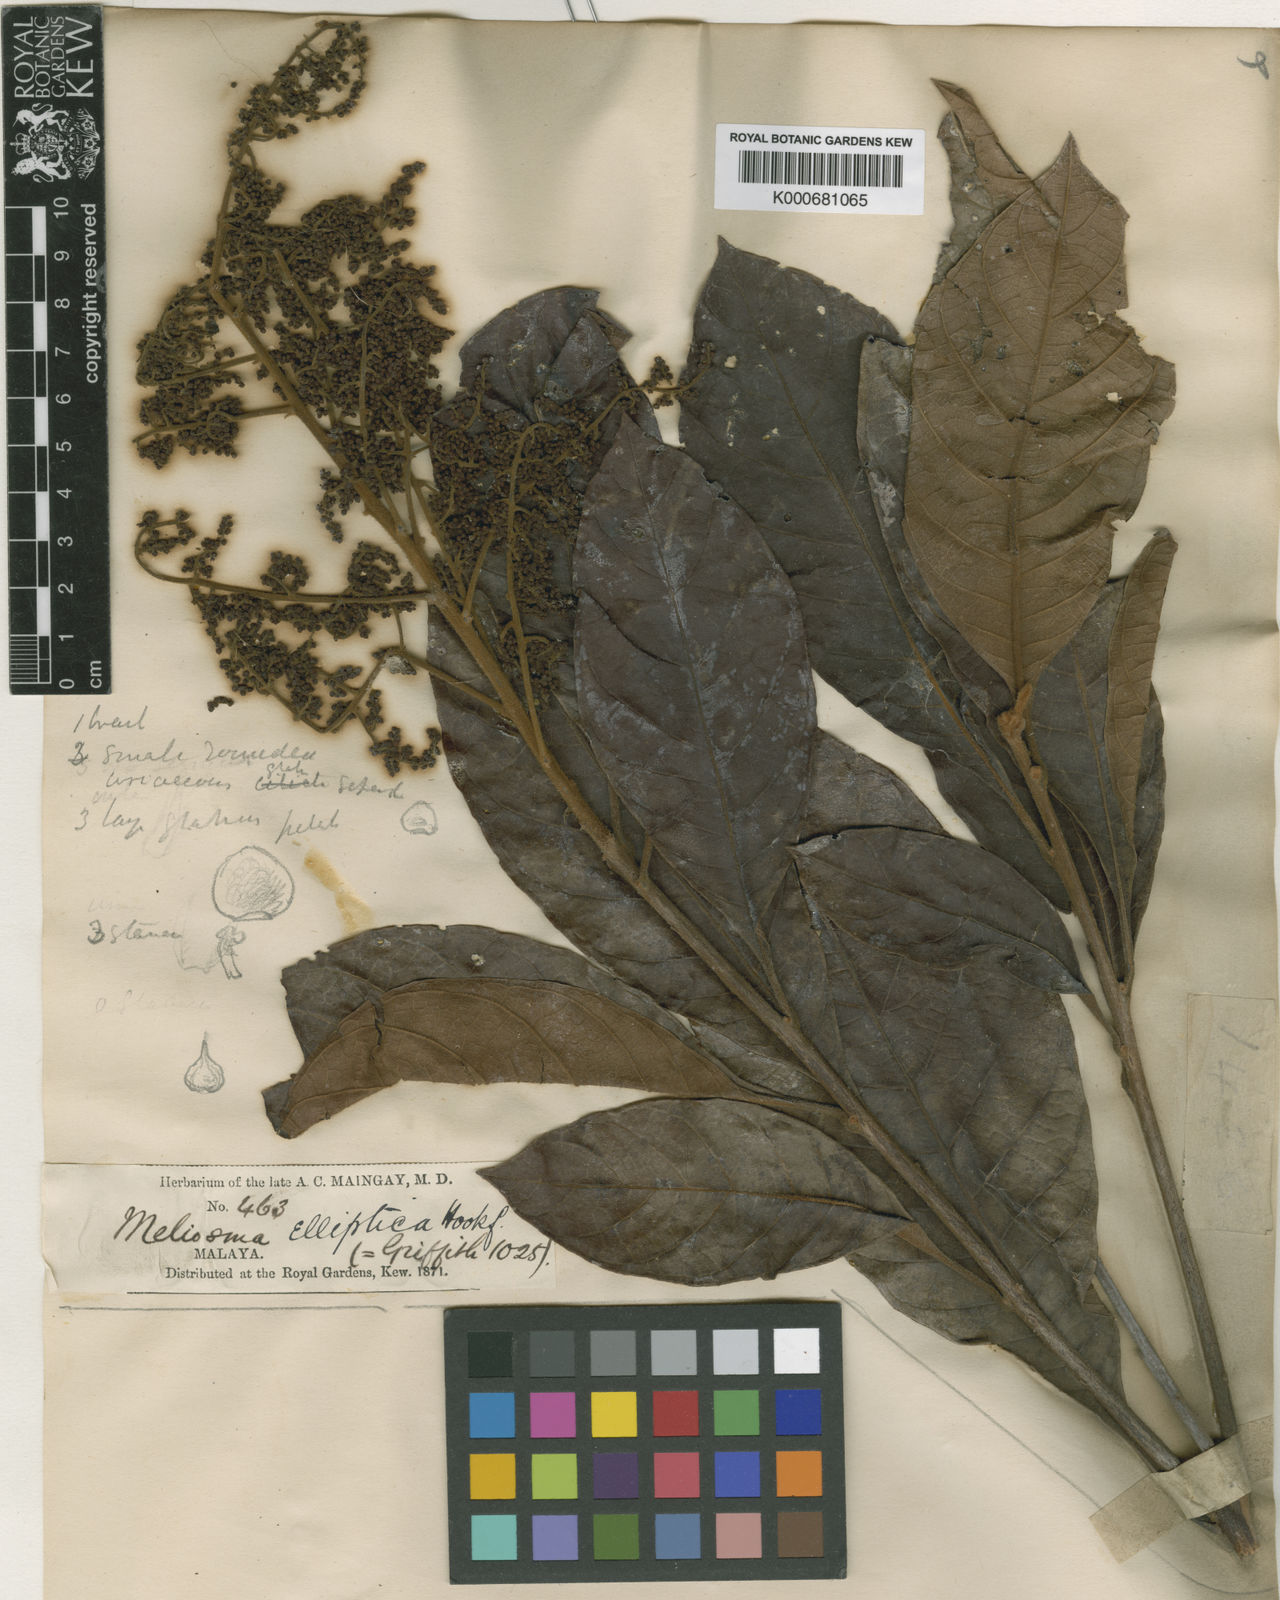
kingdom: Plantae
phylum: Tracheophyta
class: Magnoliopsida
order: Proteales
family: Sabiaceae
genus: Meliosma
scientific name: Meliosma simplicifolia
